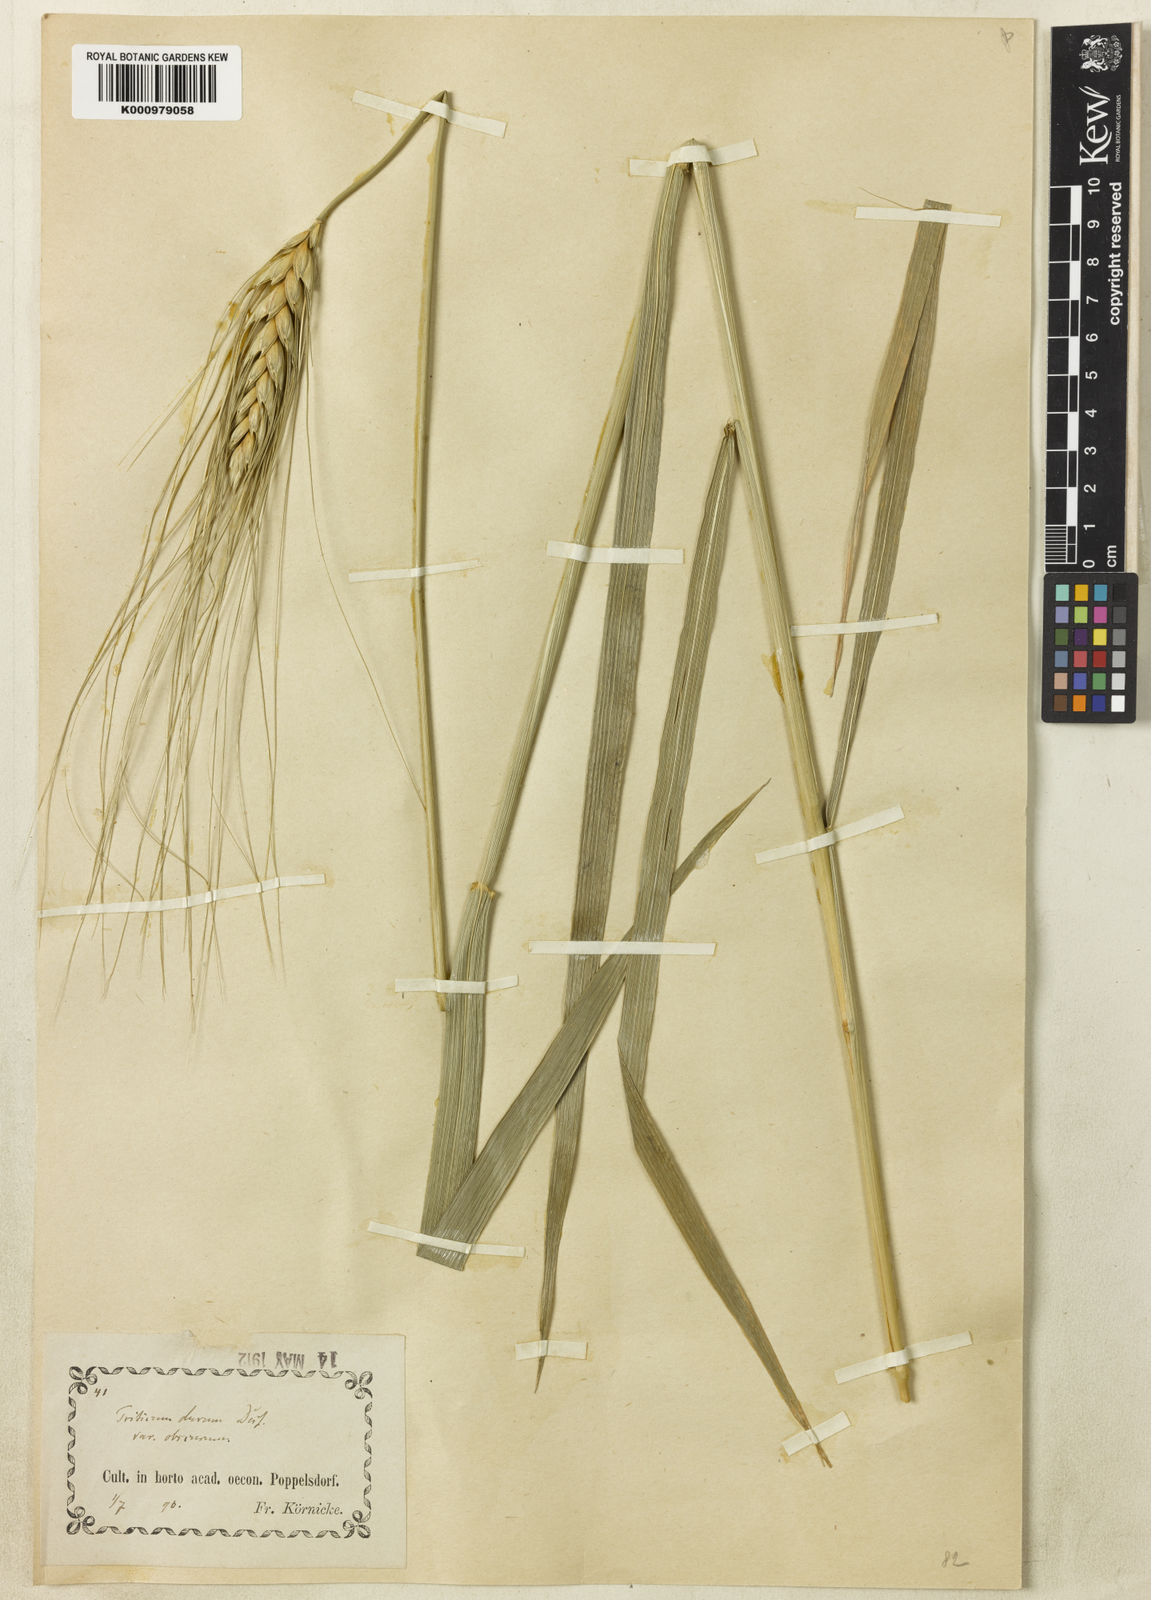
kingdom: Plantae
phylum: Tracheophyta
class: Liliopsida
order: Poales
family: Poaceae
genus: Triticum
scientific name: Triticum turgidum
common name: Rivet wheat
